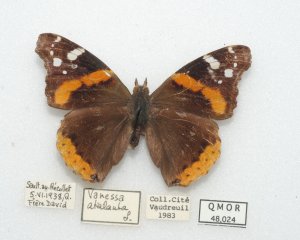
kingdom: Animalia
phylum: Arthropoda
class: Insecta
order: Lepidoptera
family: Nymphalidae
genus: Vanessa
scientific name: Vanessa atalanta
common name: Red Admiral
